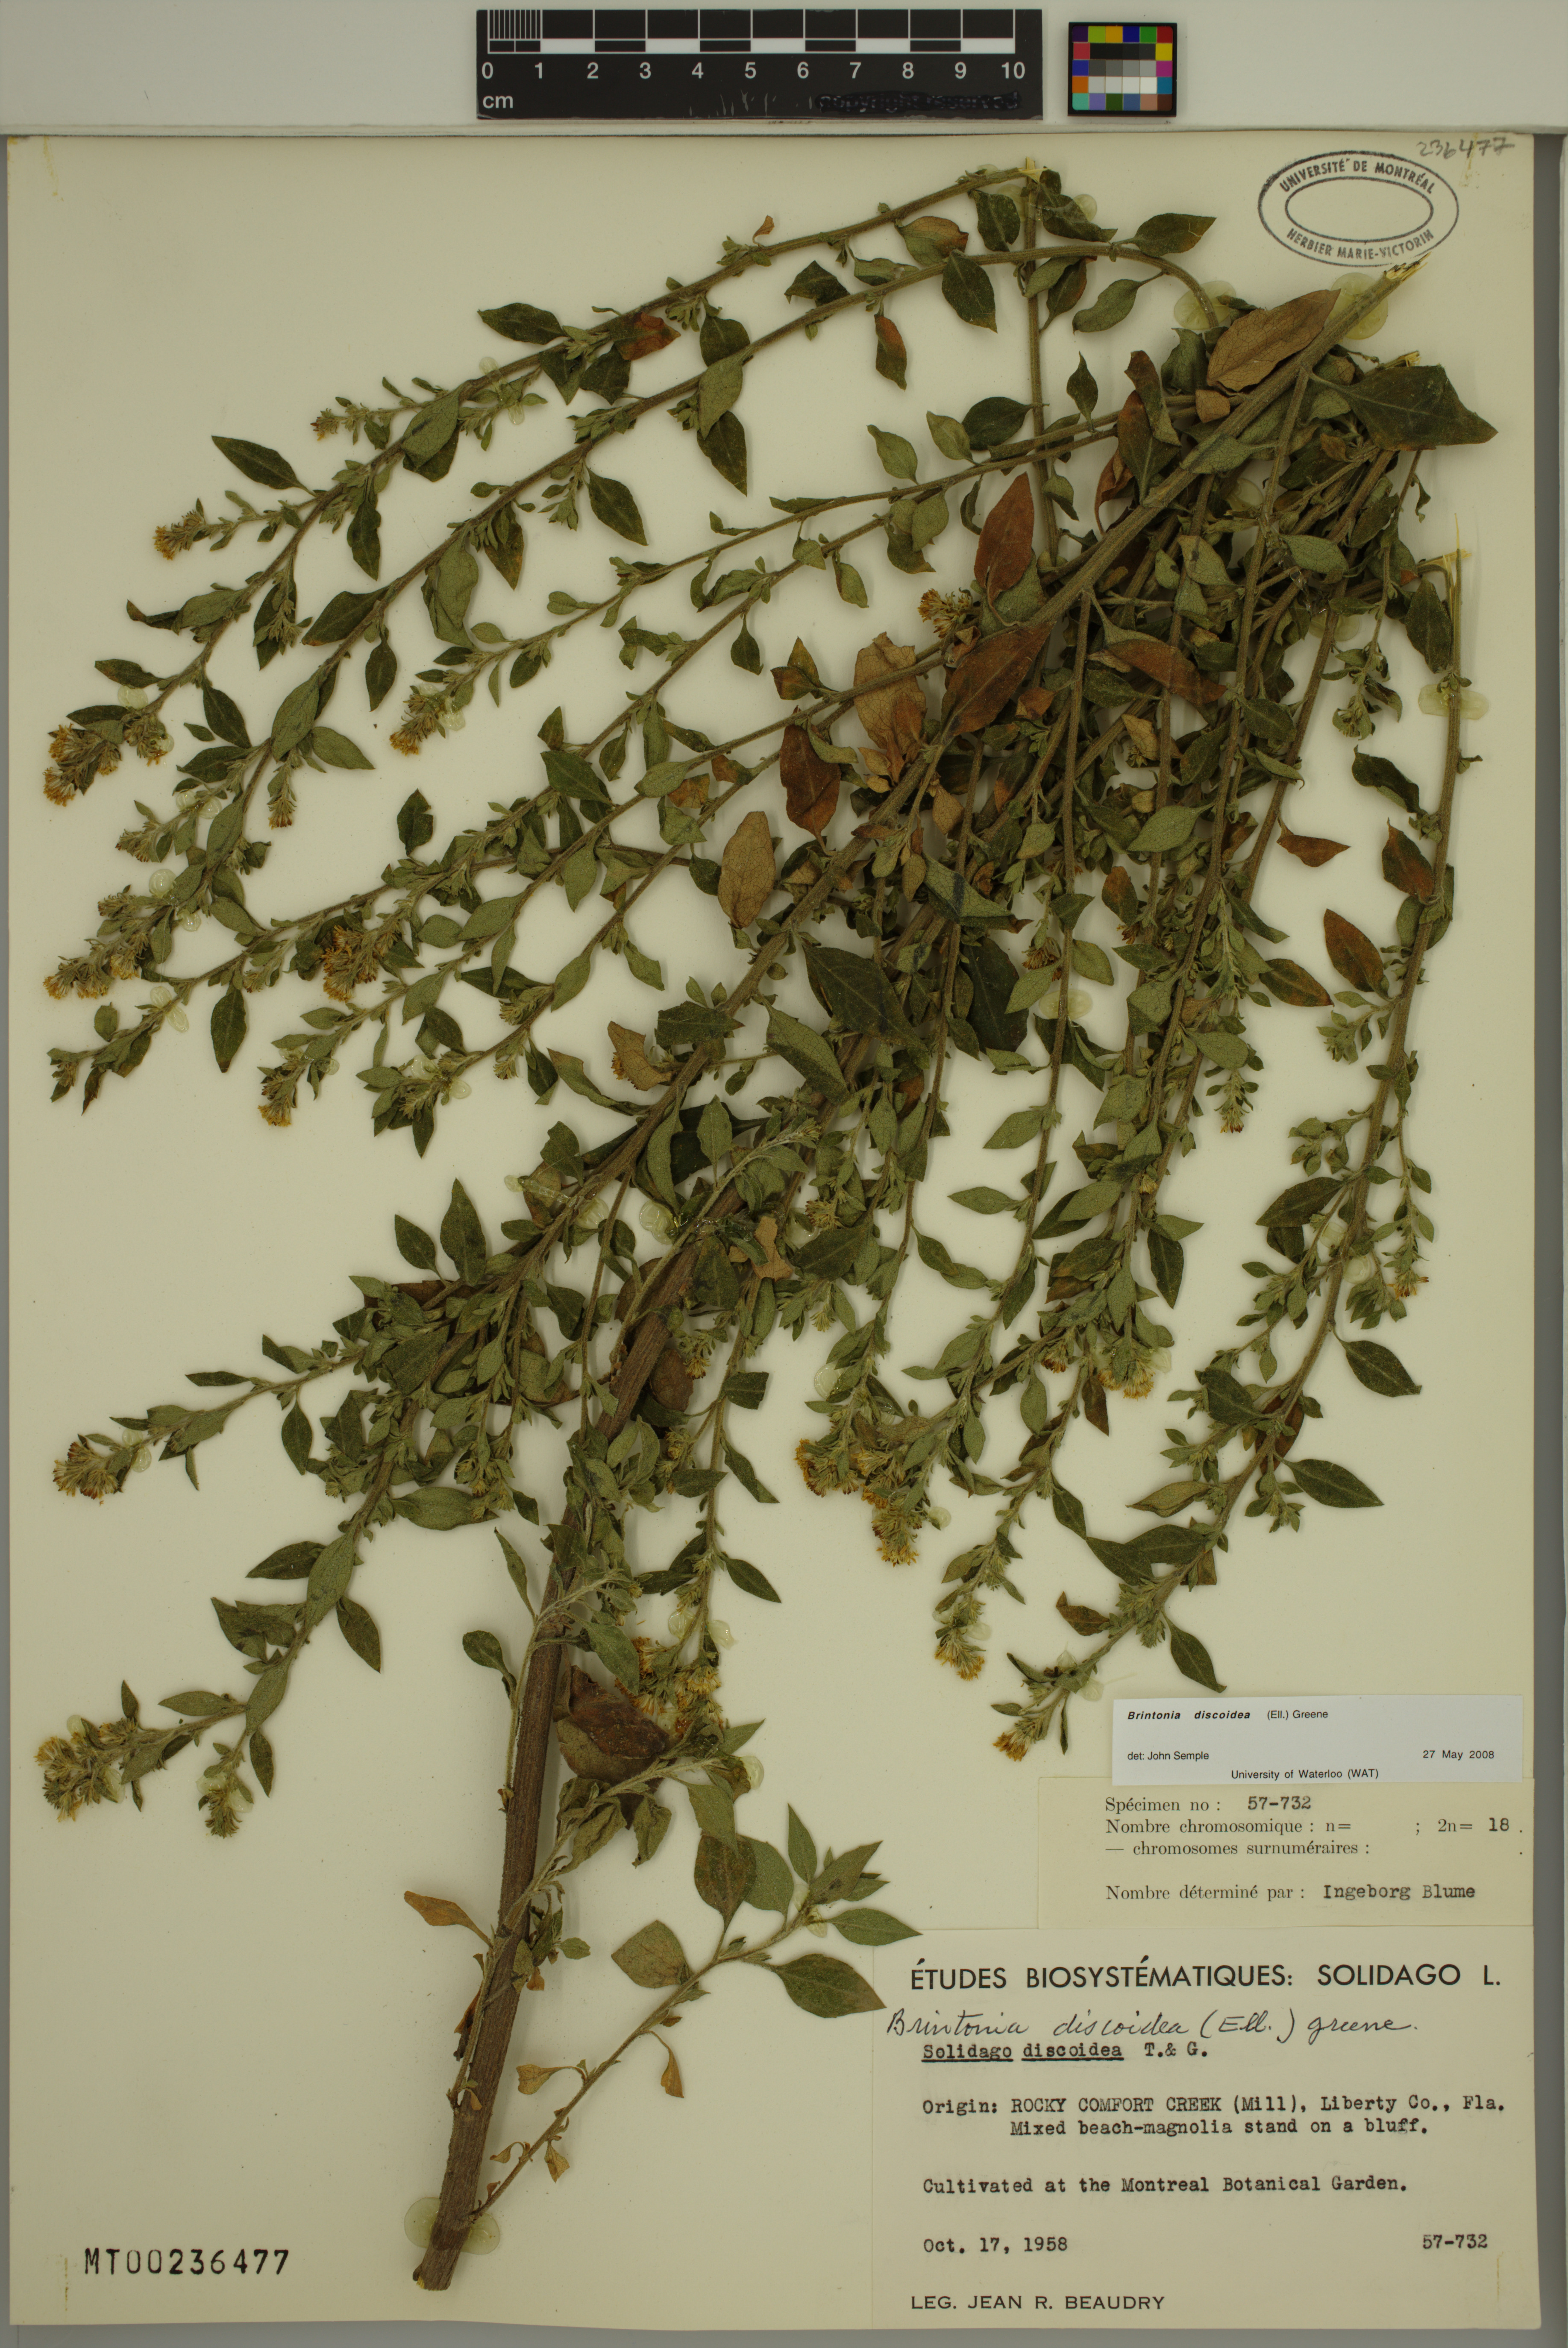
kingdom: Plantae
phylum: Tracheophyta
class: Magnoliopsida
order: Asterales
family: Asteraceae
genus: Solidago
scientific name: Solidago discoidea
